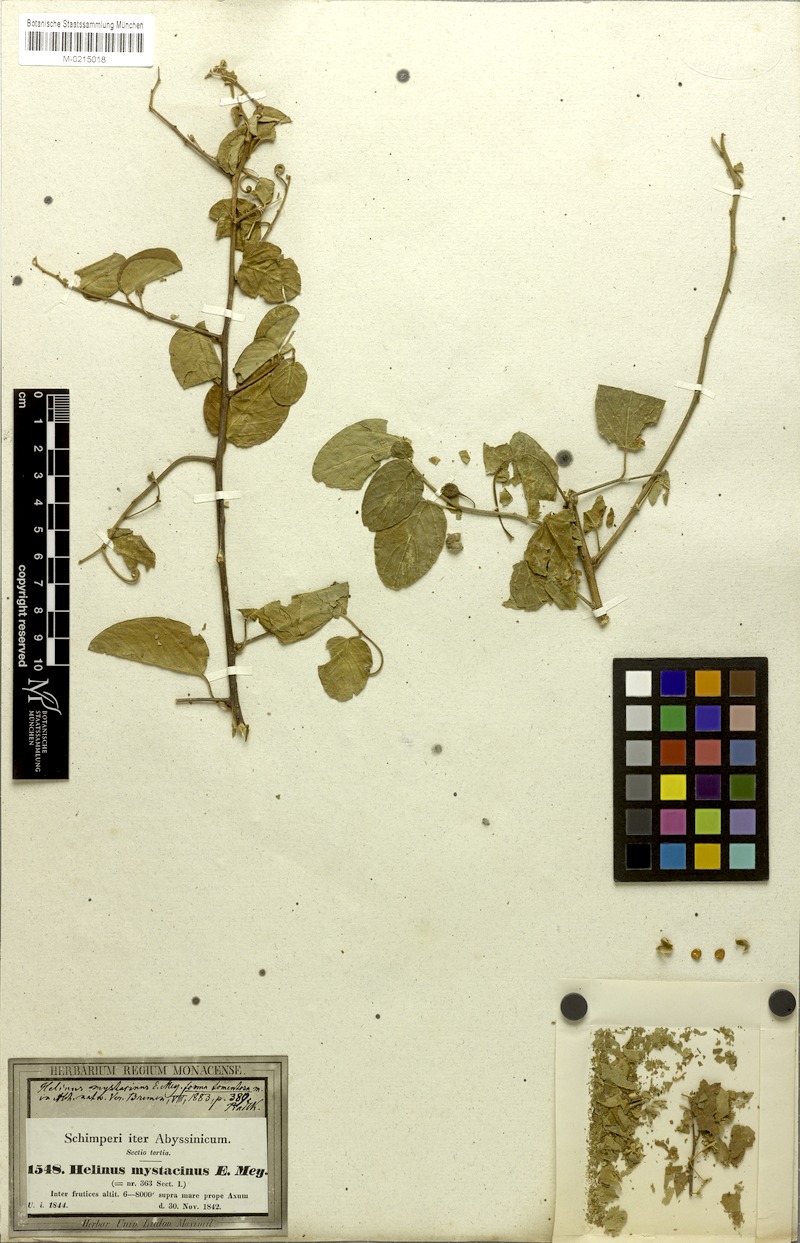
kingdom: Plantae
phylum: Tracheophyta
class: Magnoliopsida
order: Rosales
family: Rhamnaceae
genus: Helinus
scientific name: Helinus mystacinus
